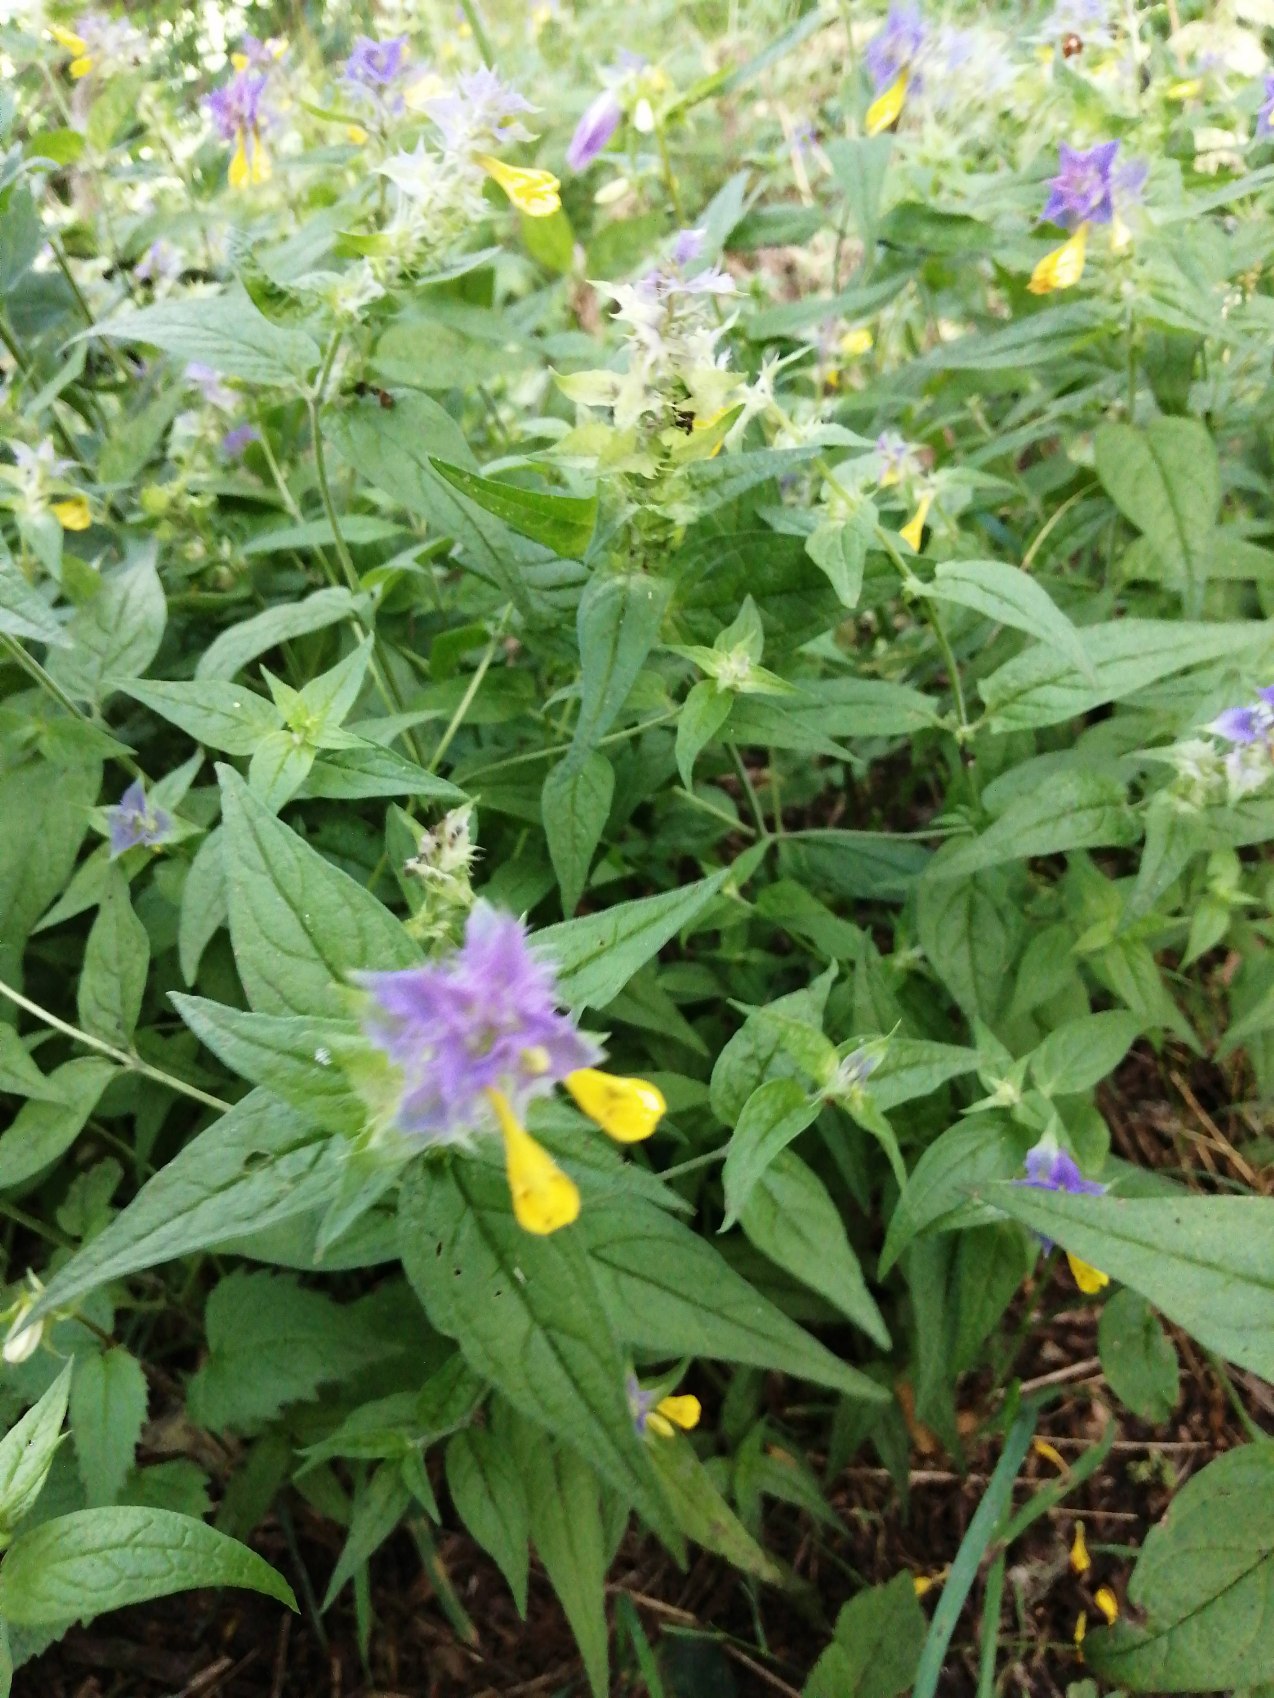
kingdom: Plantae
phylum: Tracheophyta
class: Magnoliopsida
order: Lamiales
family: Orobanchaceae
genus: Melampyrum
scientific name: Melampyrum nemorosum
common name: Blåtoppet kohvede
